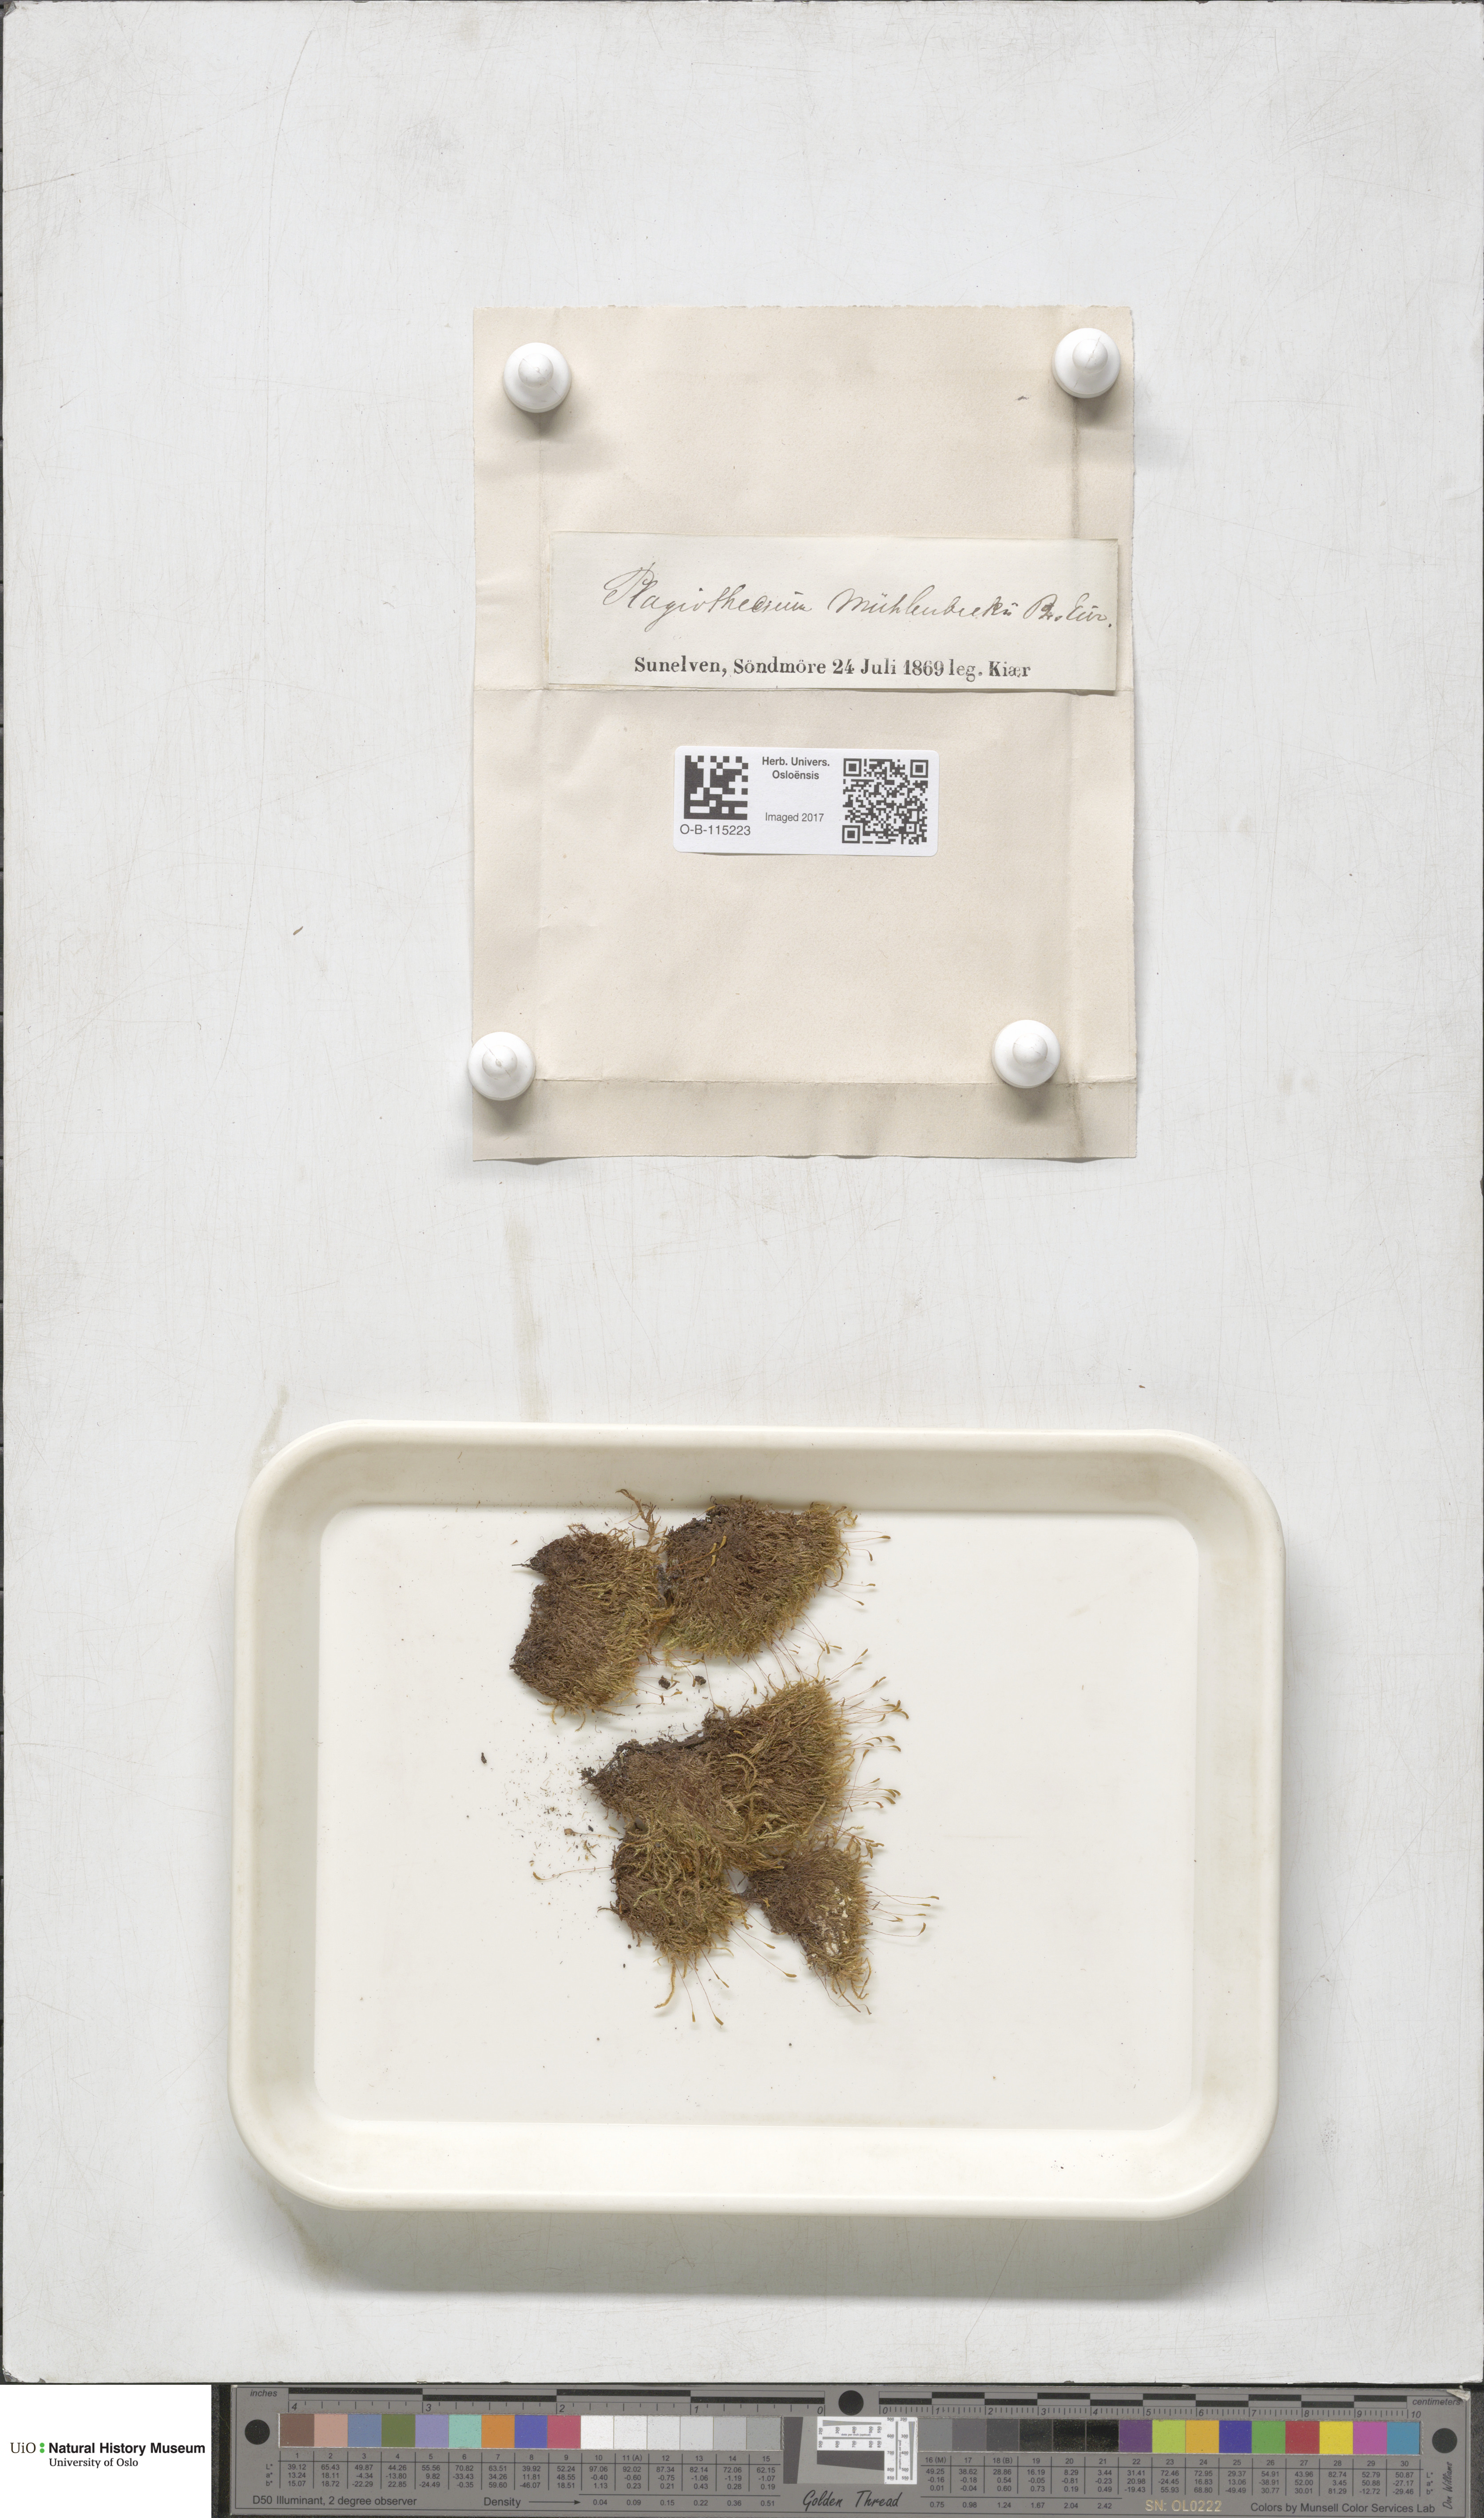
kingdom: Plantae
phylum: Bryophyta
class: Bryopsida
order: Hypnales
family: Plagiotheciaceae
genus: Herzogiella
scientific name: Herzogiella striatella
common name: Muhlenbeck's feather-moss
